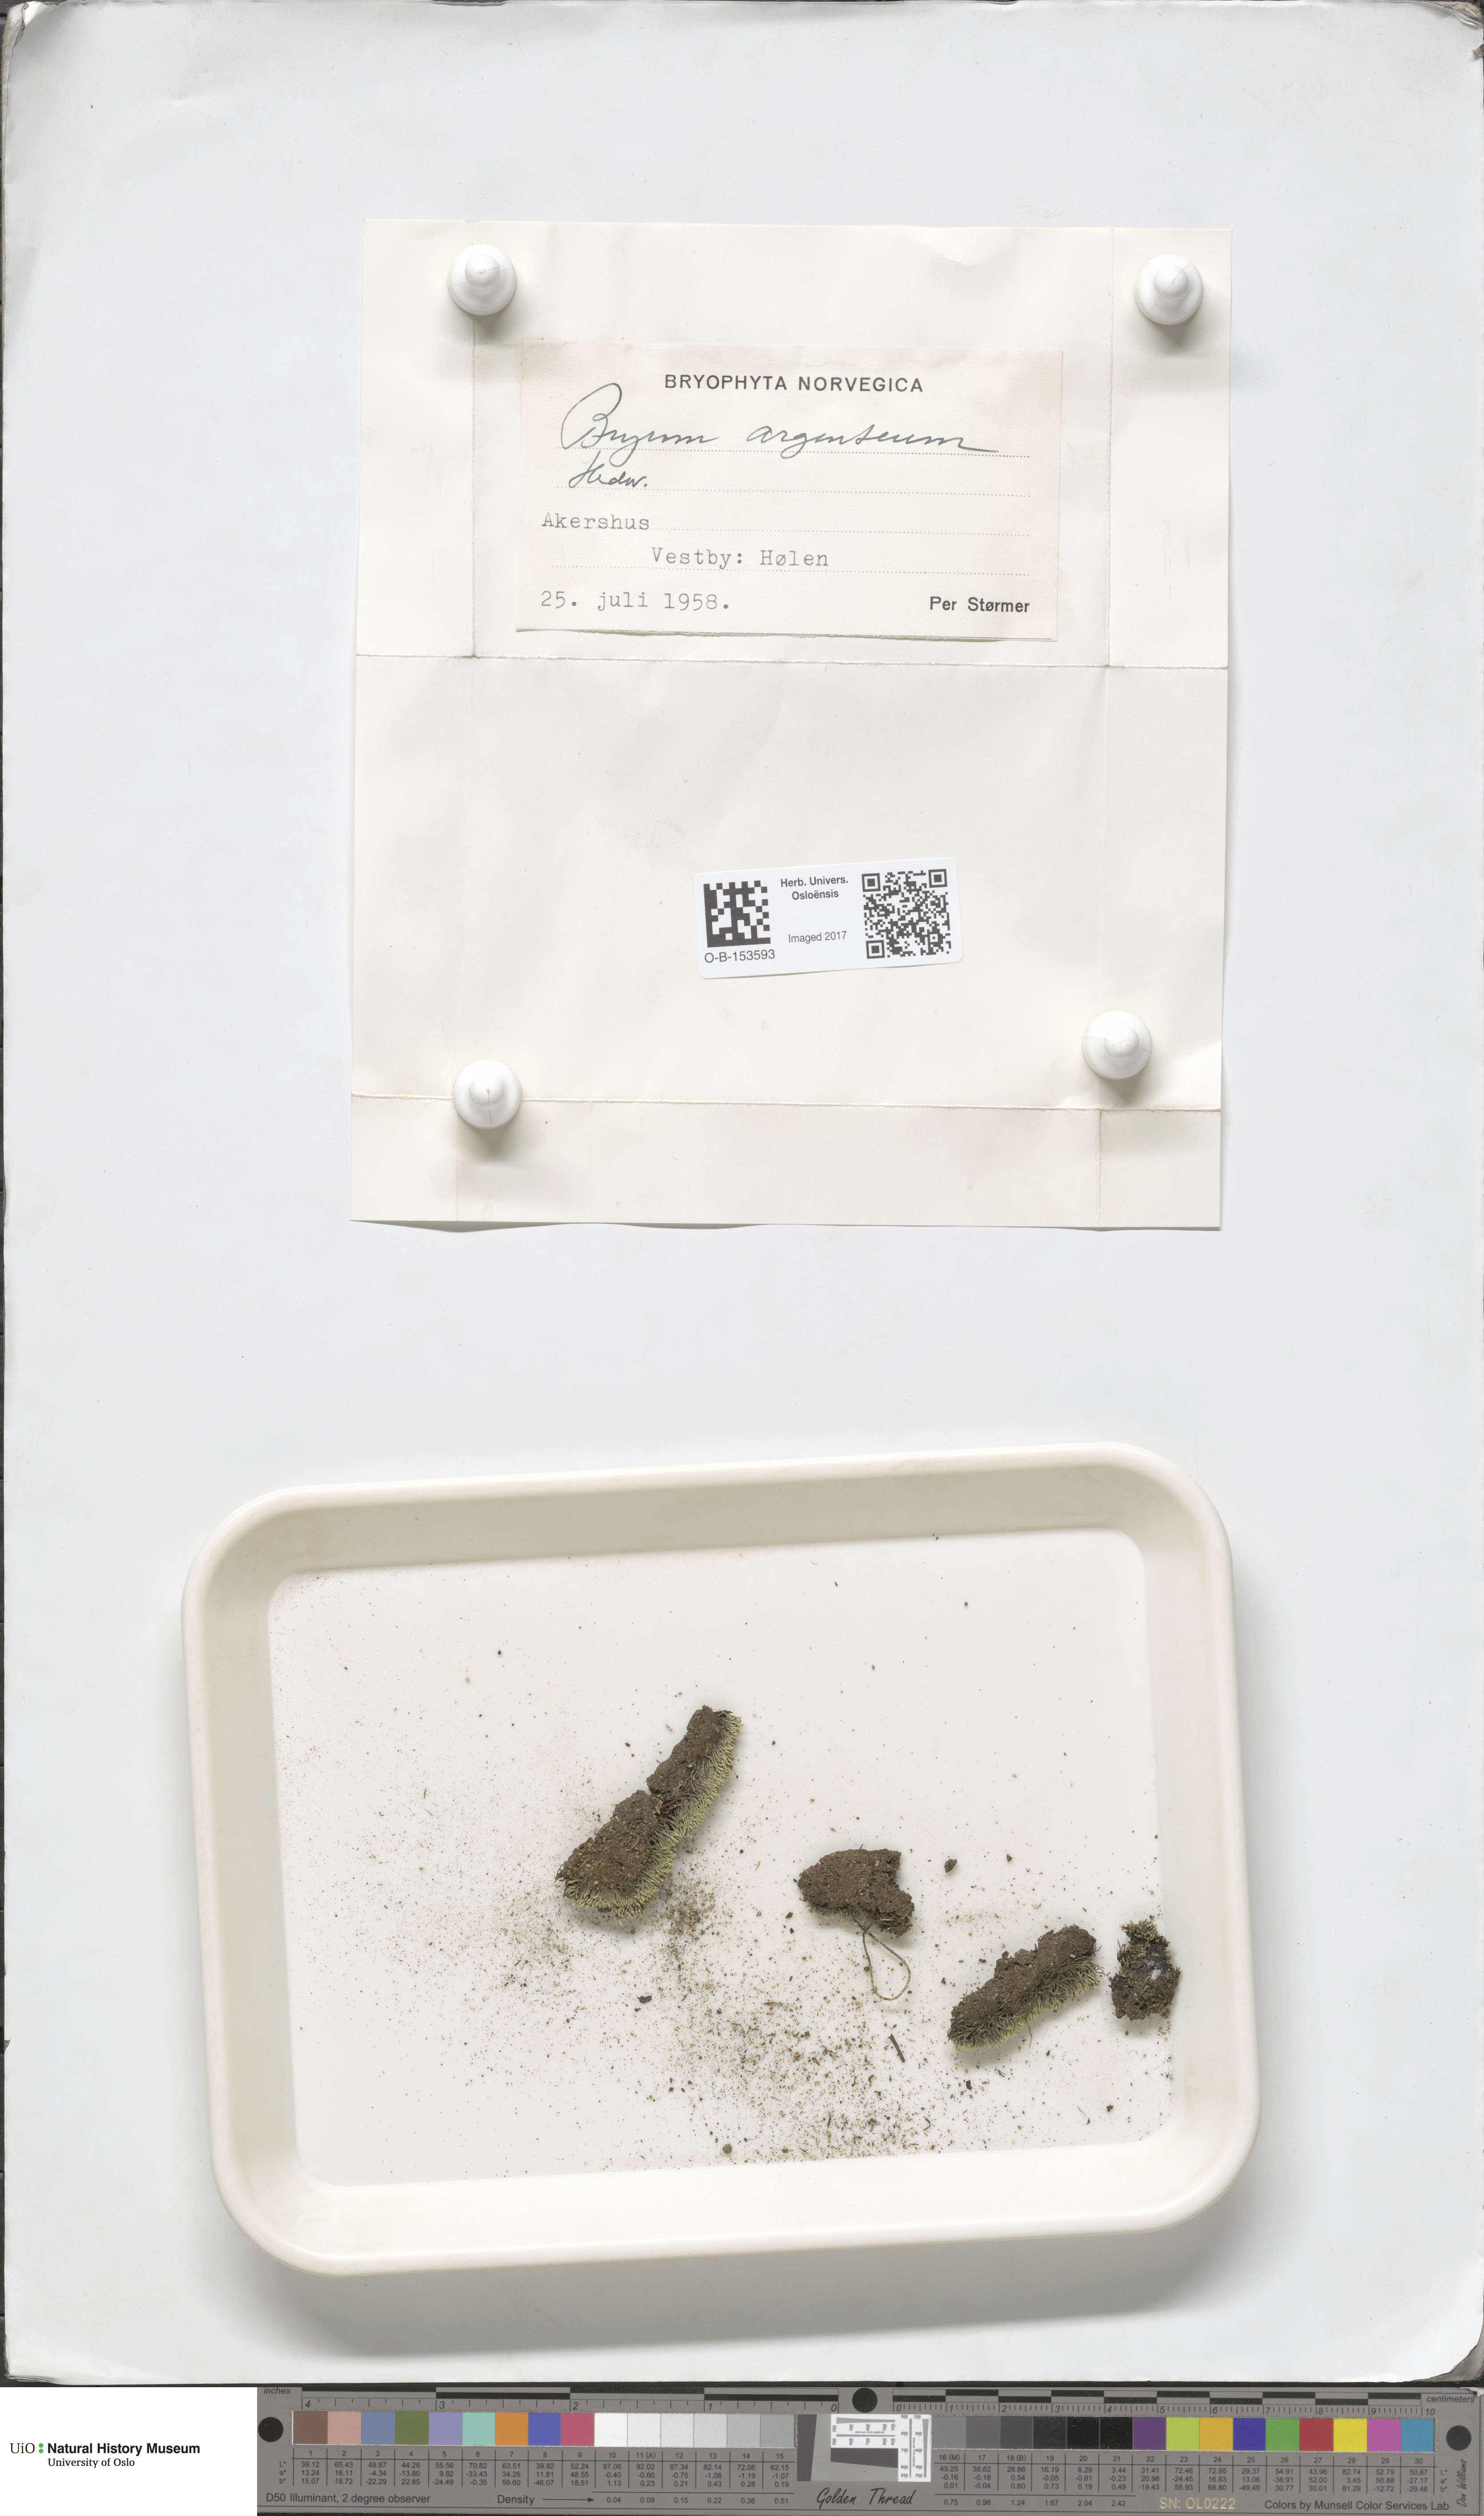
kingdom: Plantae
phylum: Bryophyta
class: Bryopsida
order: Bryales
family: Bryaceae
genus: Bryum
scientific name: Bryum argenteum
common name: Silver-moss
